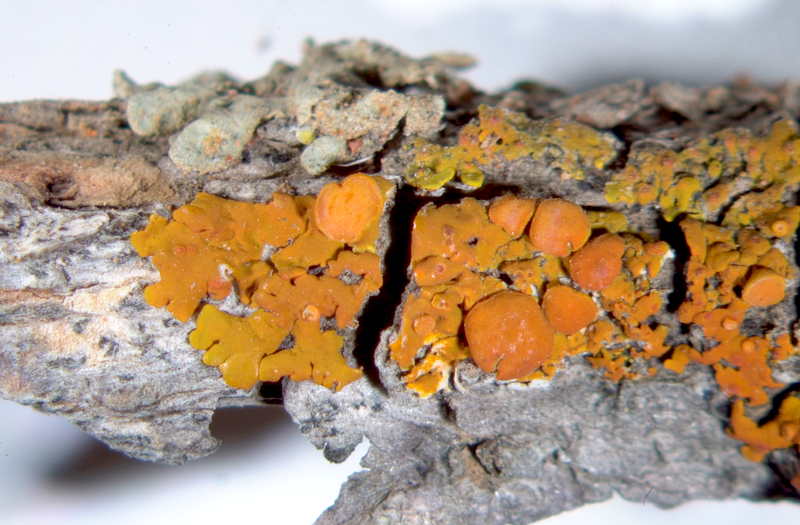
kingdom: Fungi
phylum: Ascomycota
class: Lecanoromycetes
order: Teloschistales
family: Teloschistaceae
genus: Dufourea
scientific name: Dufourea turbinata
